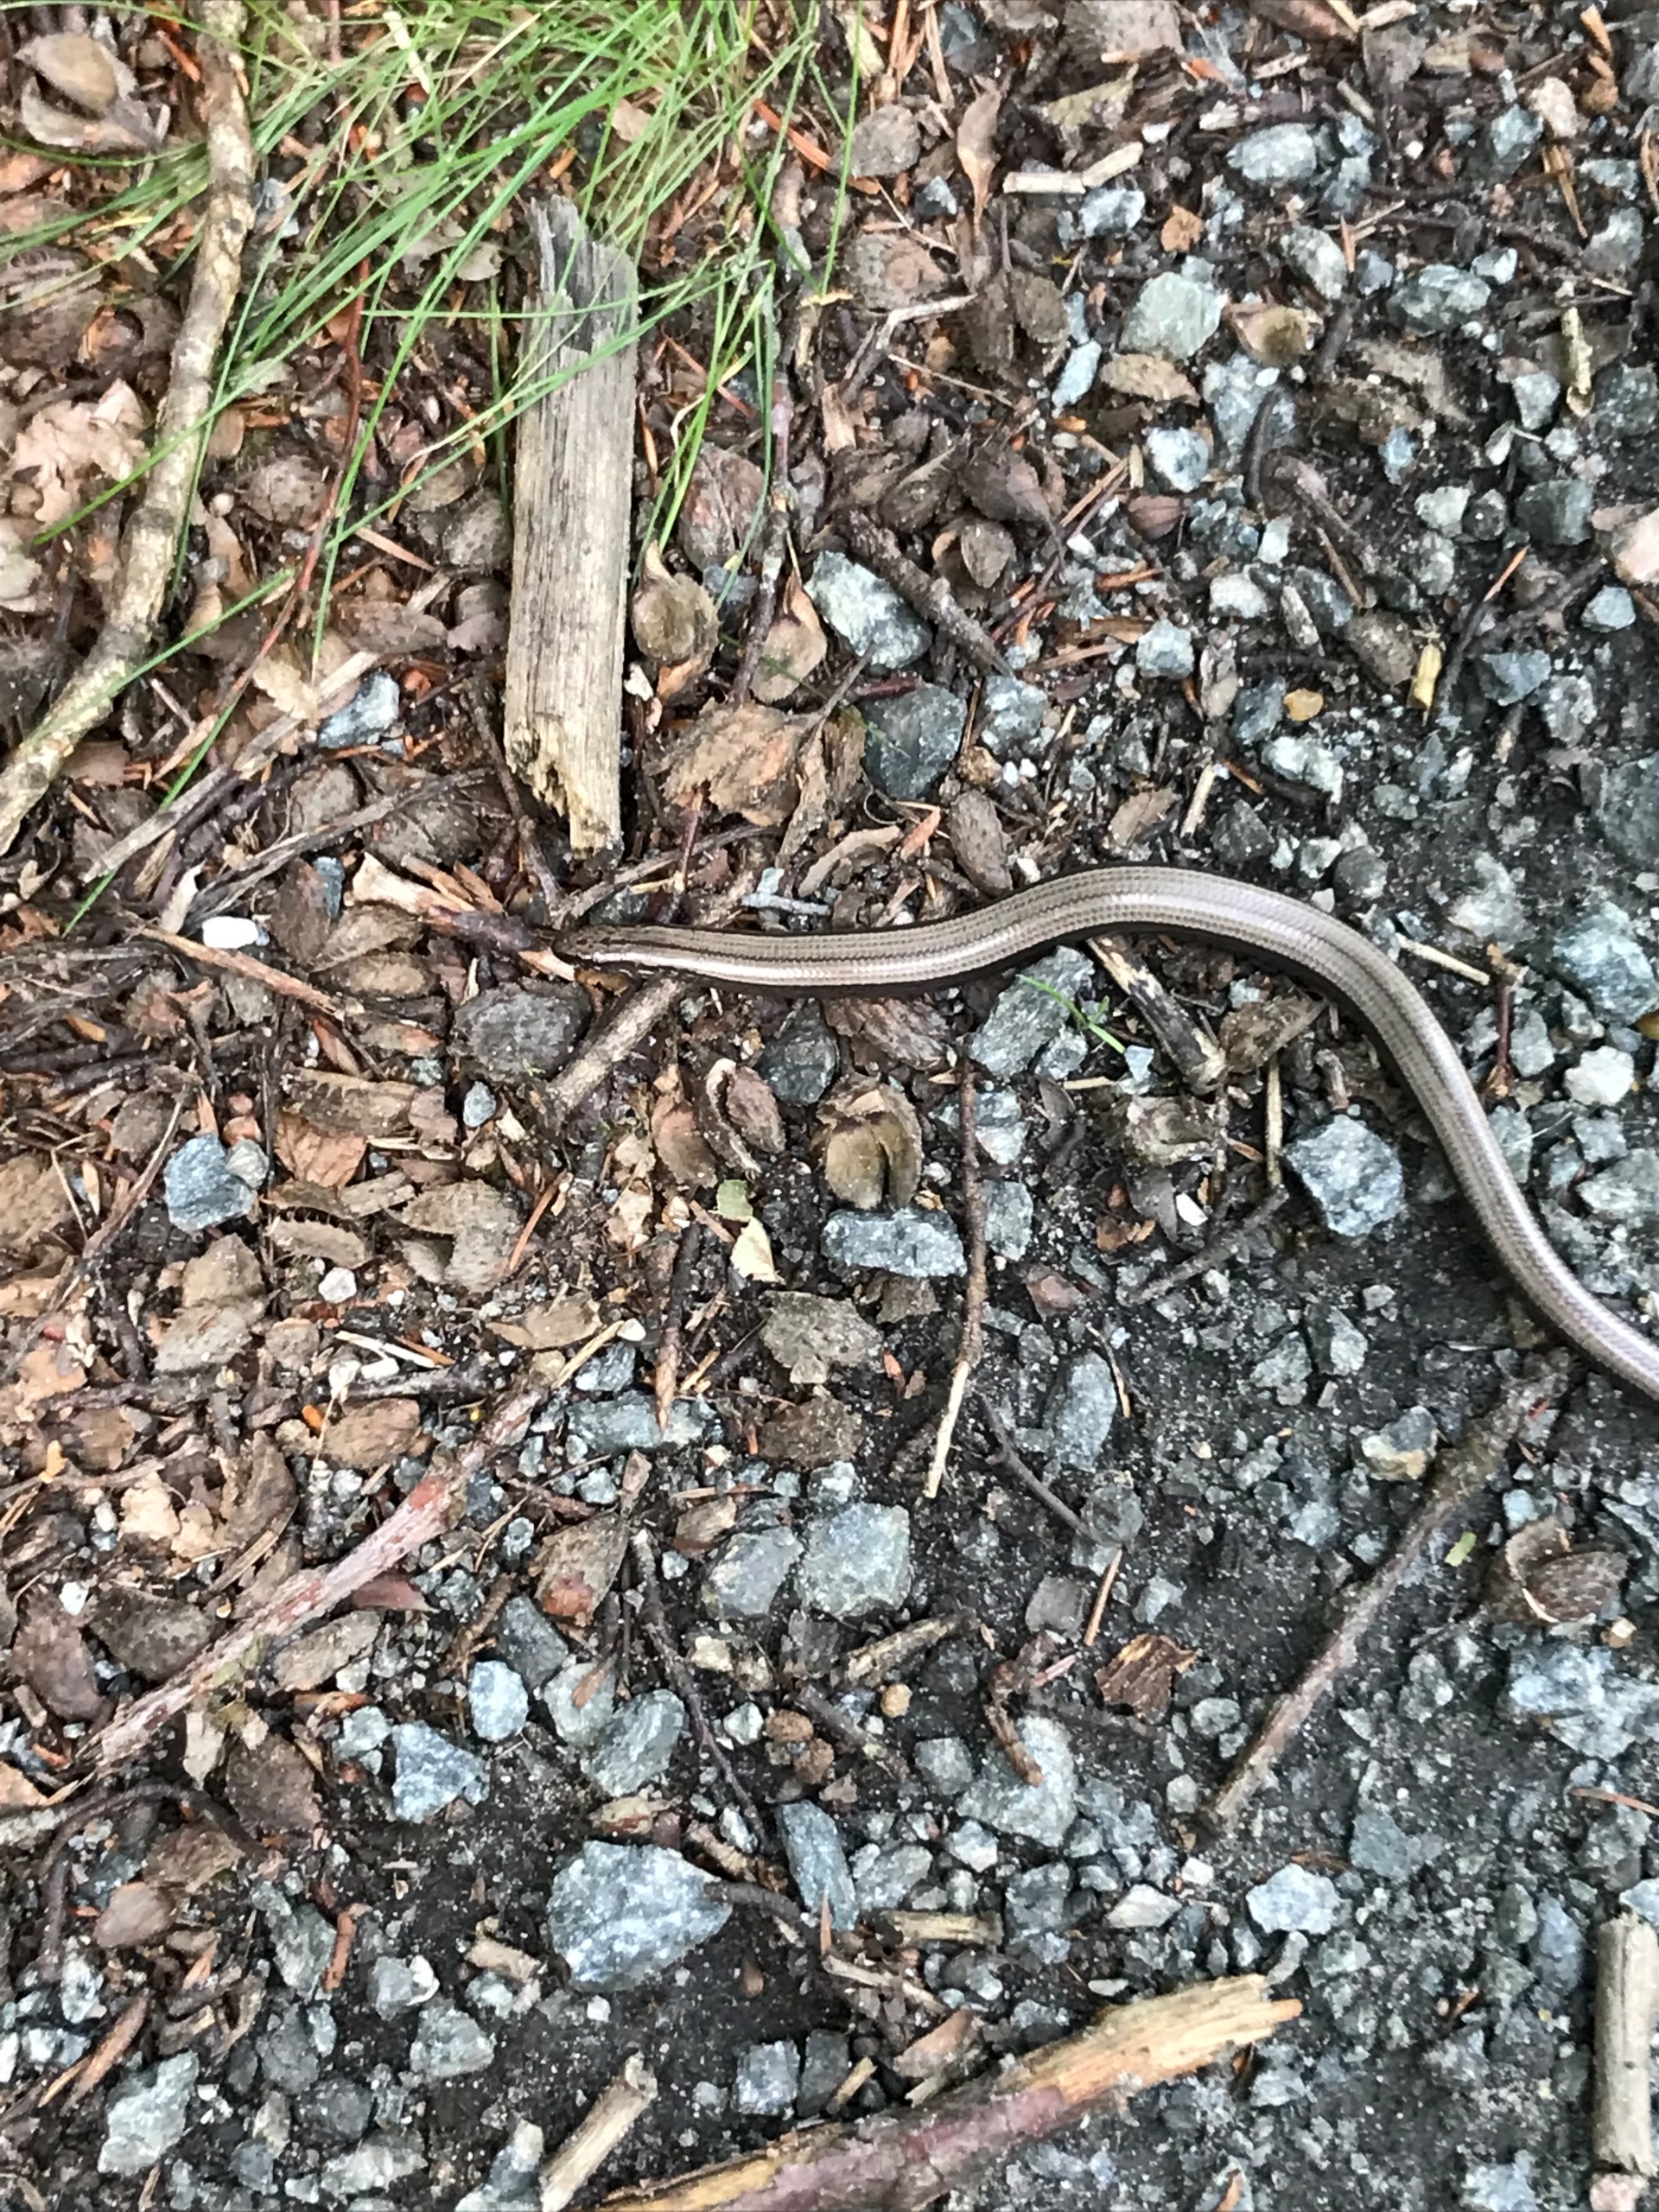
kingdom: Animalia
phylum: Chordata
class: Squamata
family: Anguidae
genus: Anguis
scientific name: Anguis fragilis
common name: Stålorm
